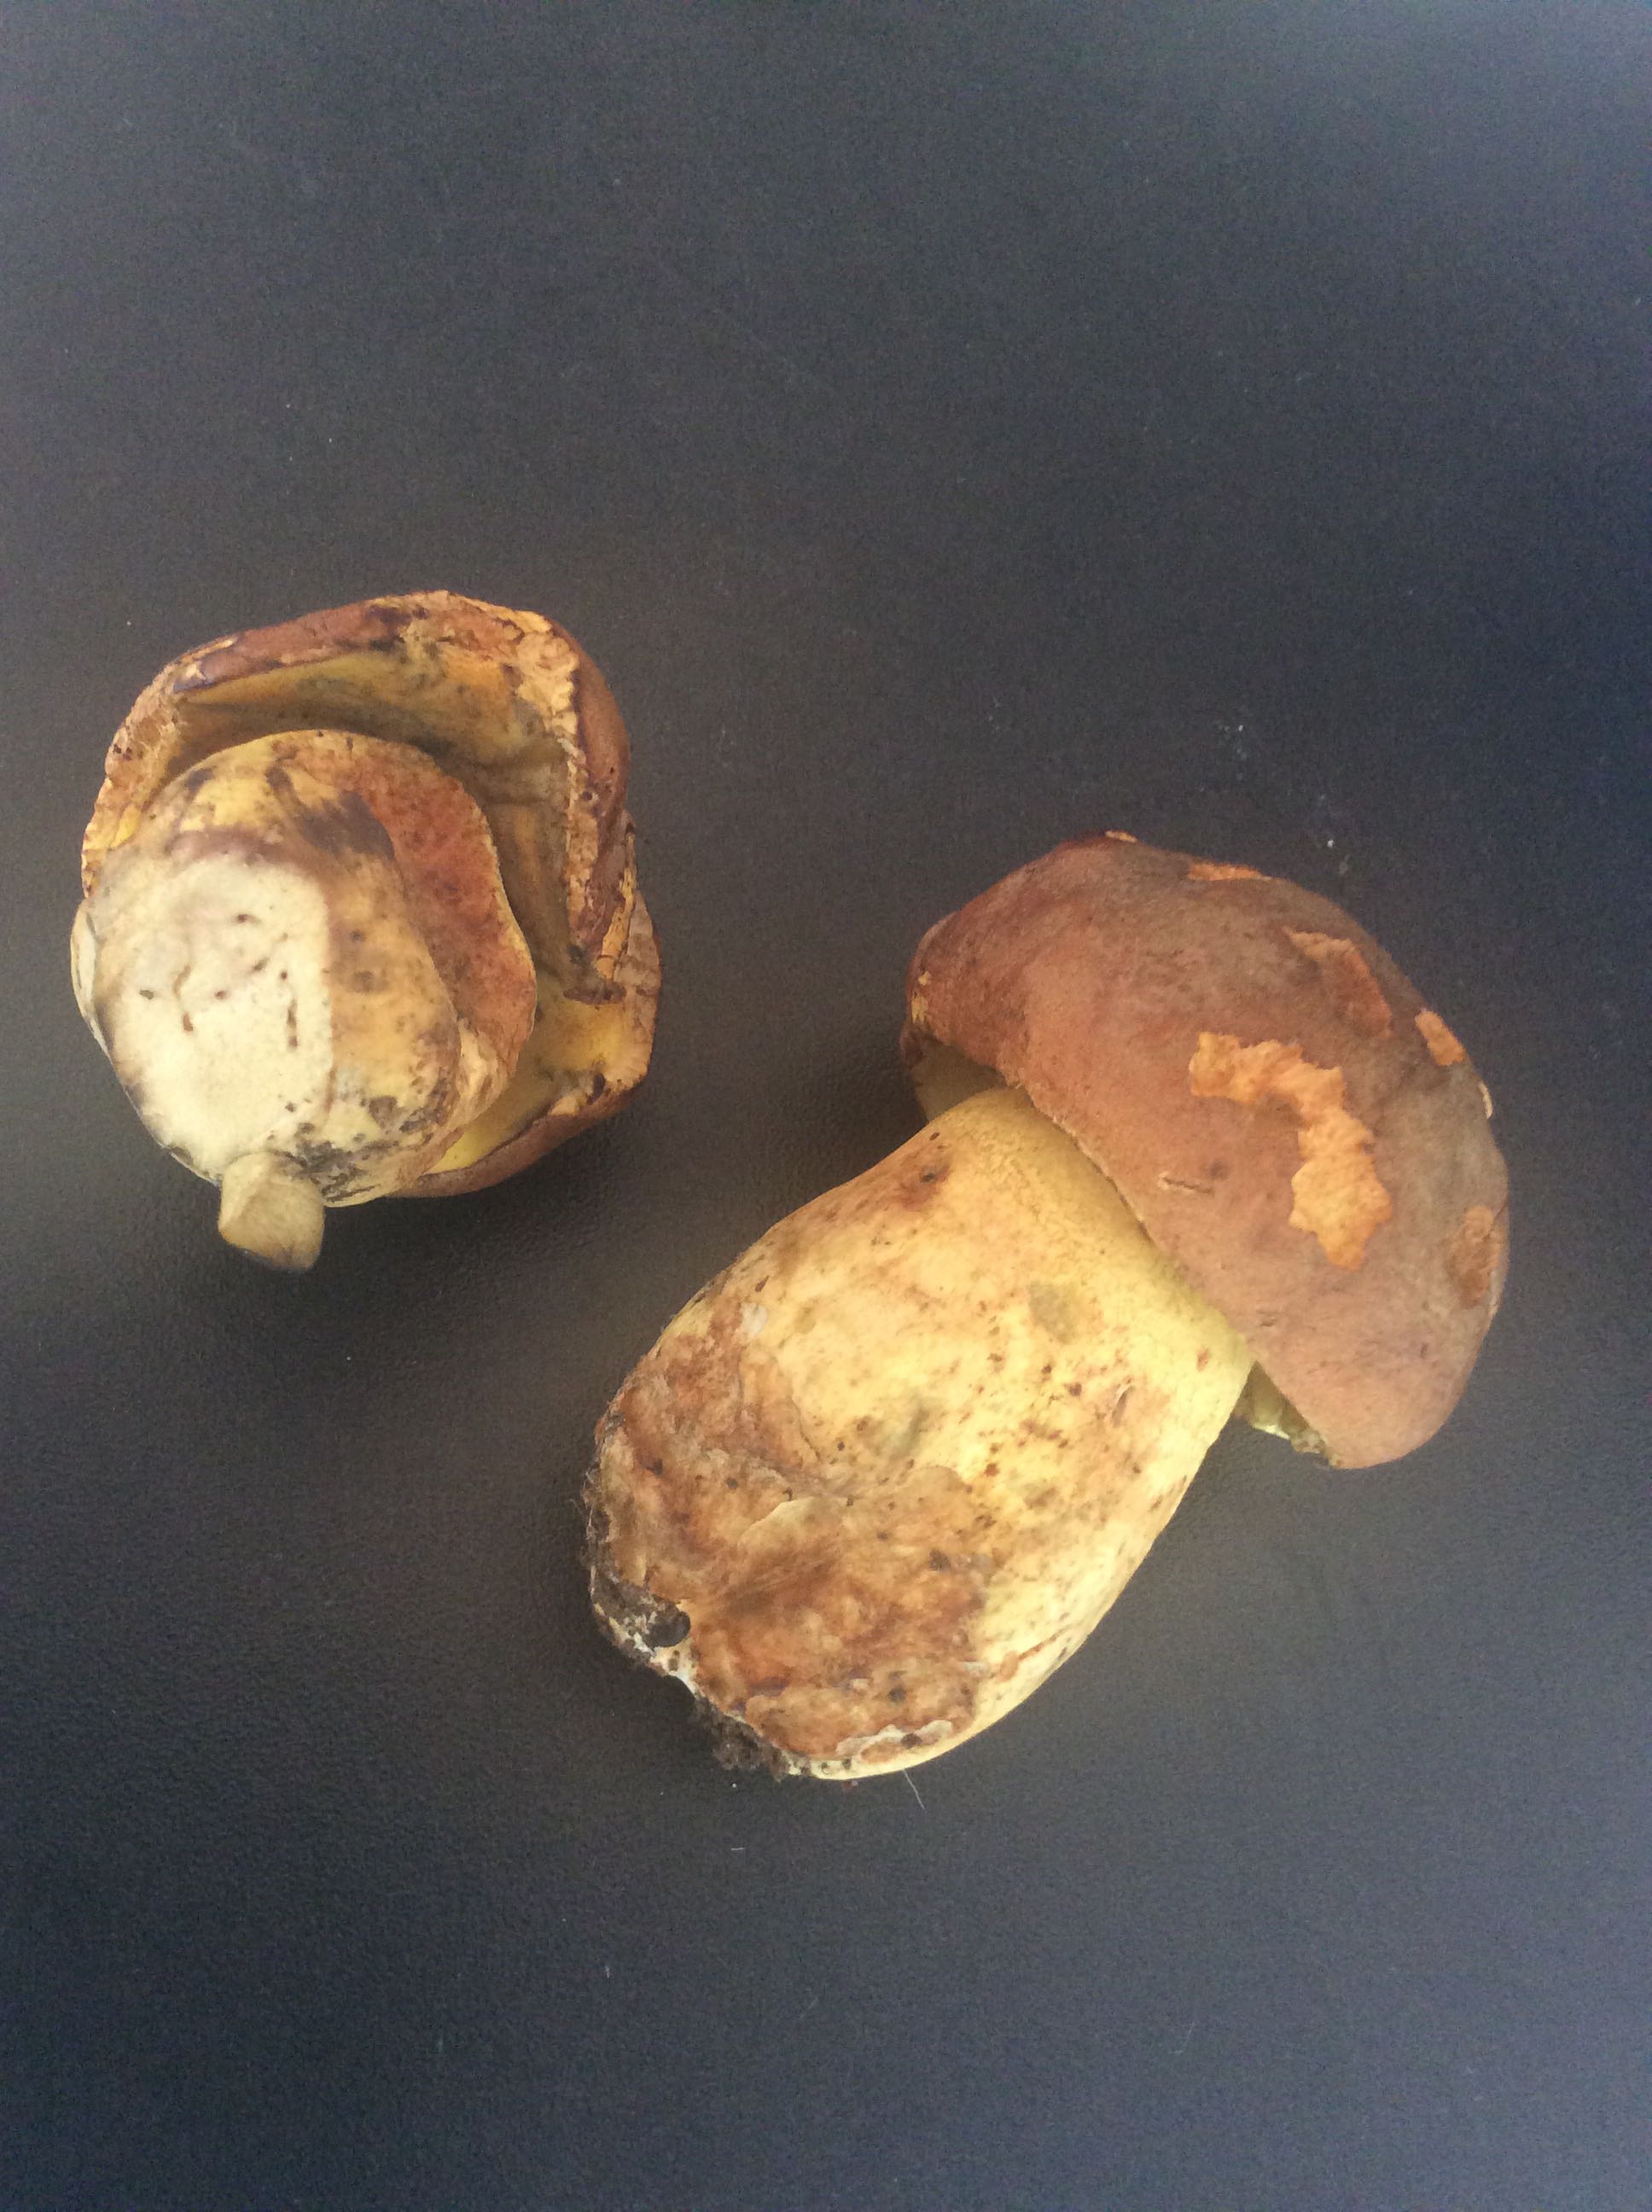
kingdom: Fungi
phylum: Basidiomycota
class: Agaricomycetes
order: Boletales
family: Boletaceae
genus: Butyriboletus
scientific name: Butyriboletus appendiculatus
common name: tenstokket rørhat
